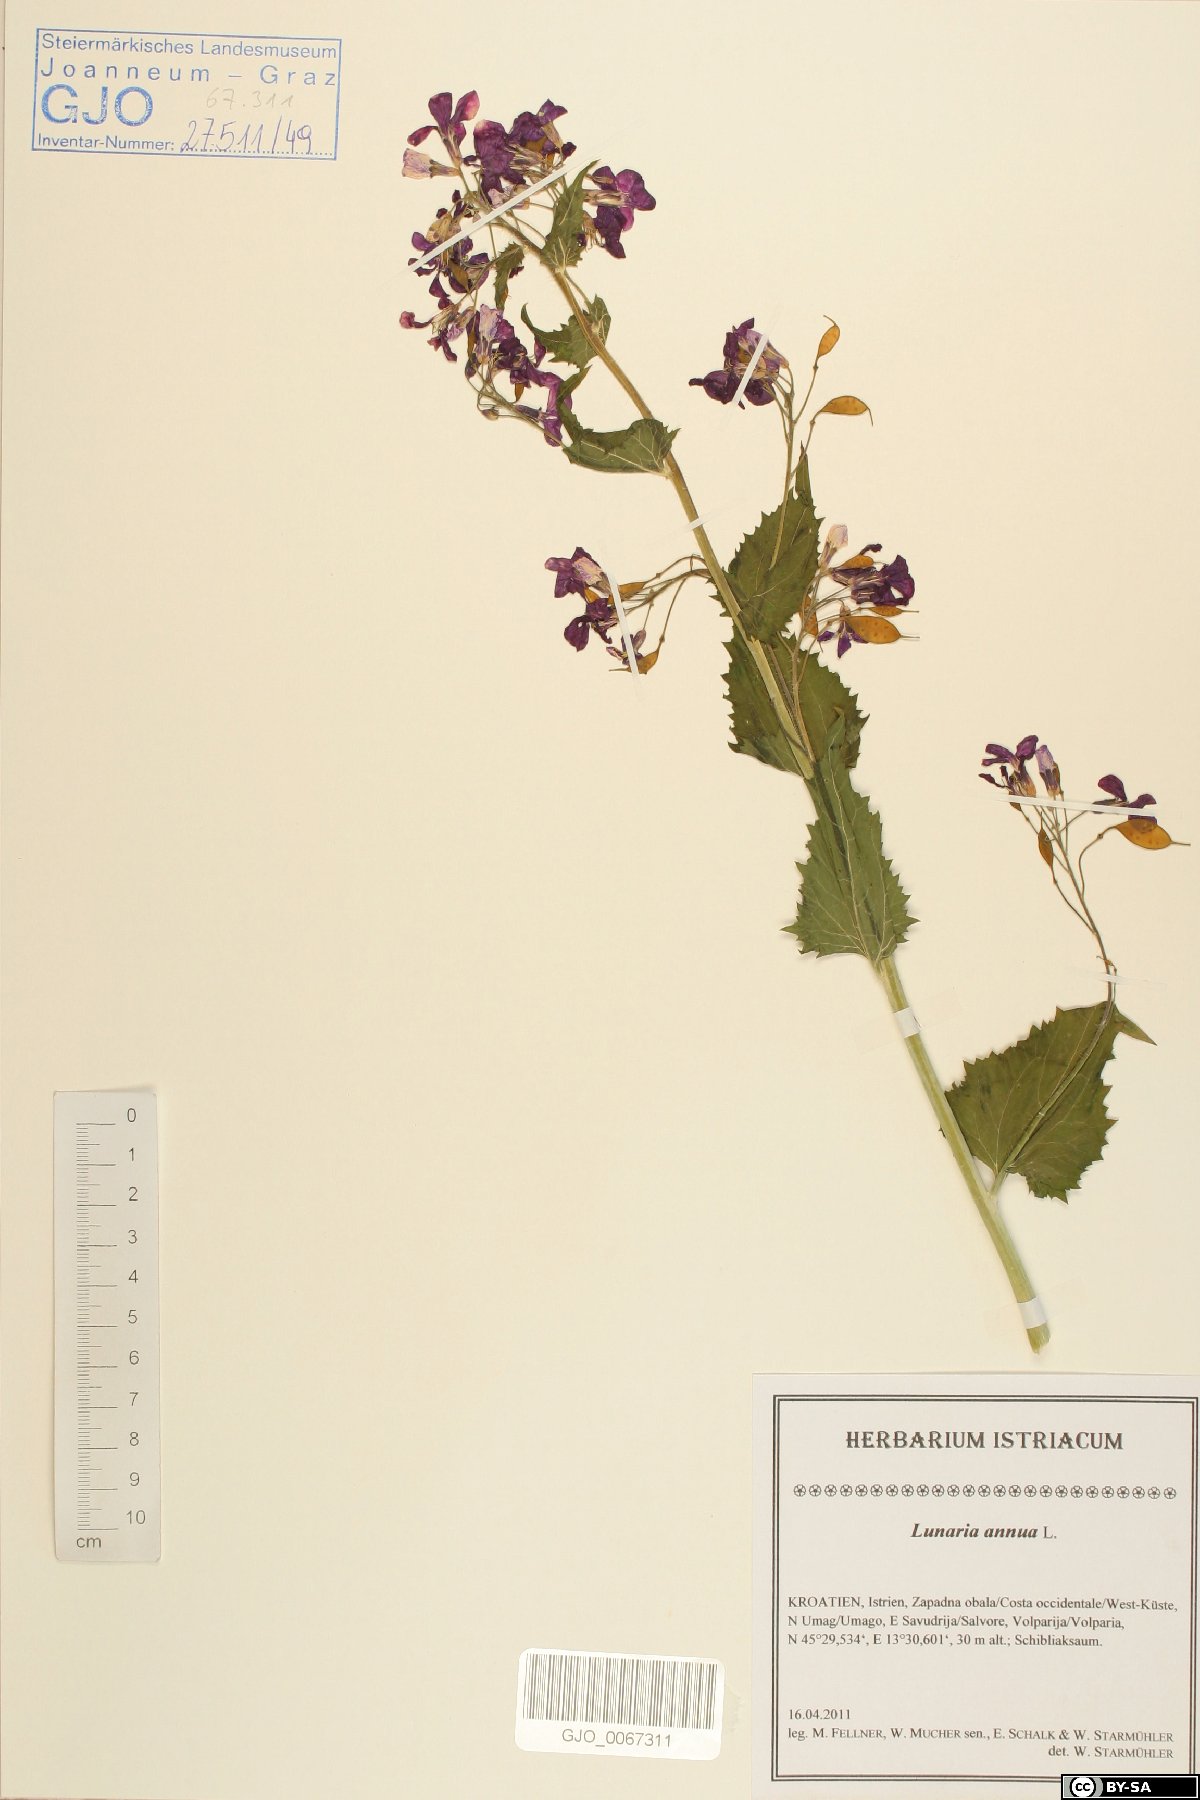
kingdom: Plantae
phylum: Tracheophyta
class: Magnoliopsida
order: Brassicales
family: Brassicaceae
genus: Lunaria
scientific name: Lunaria annua
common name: Honesty
